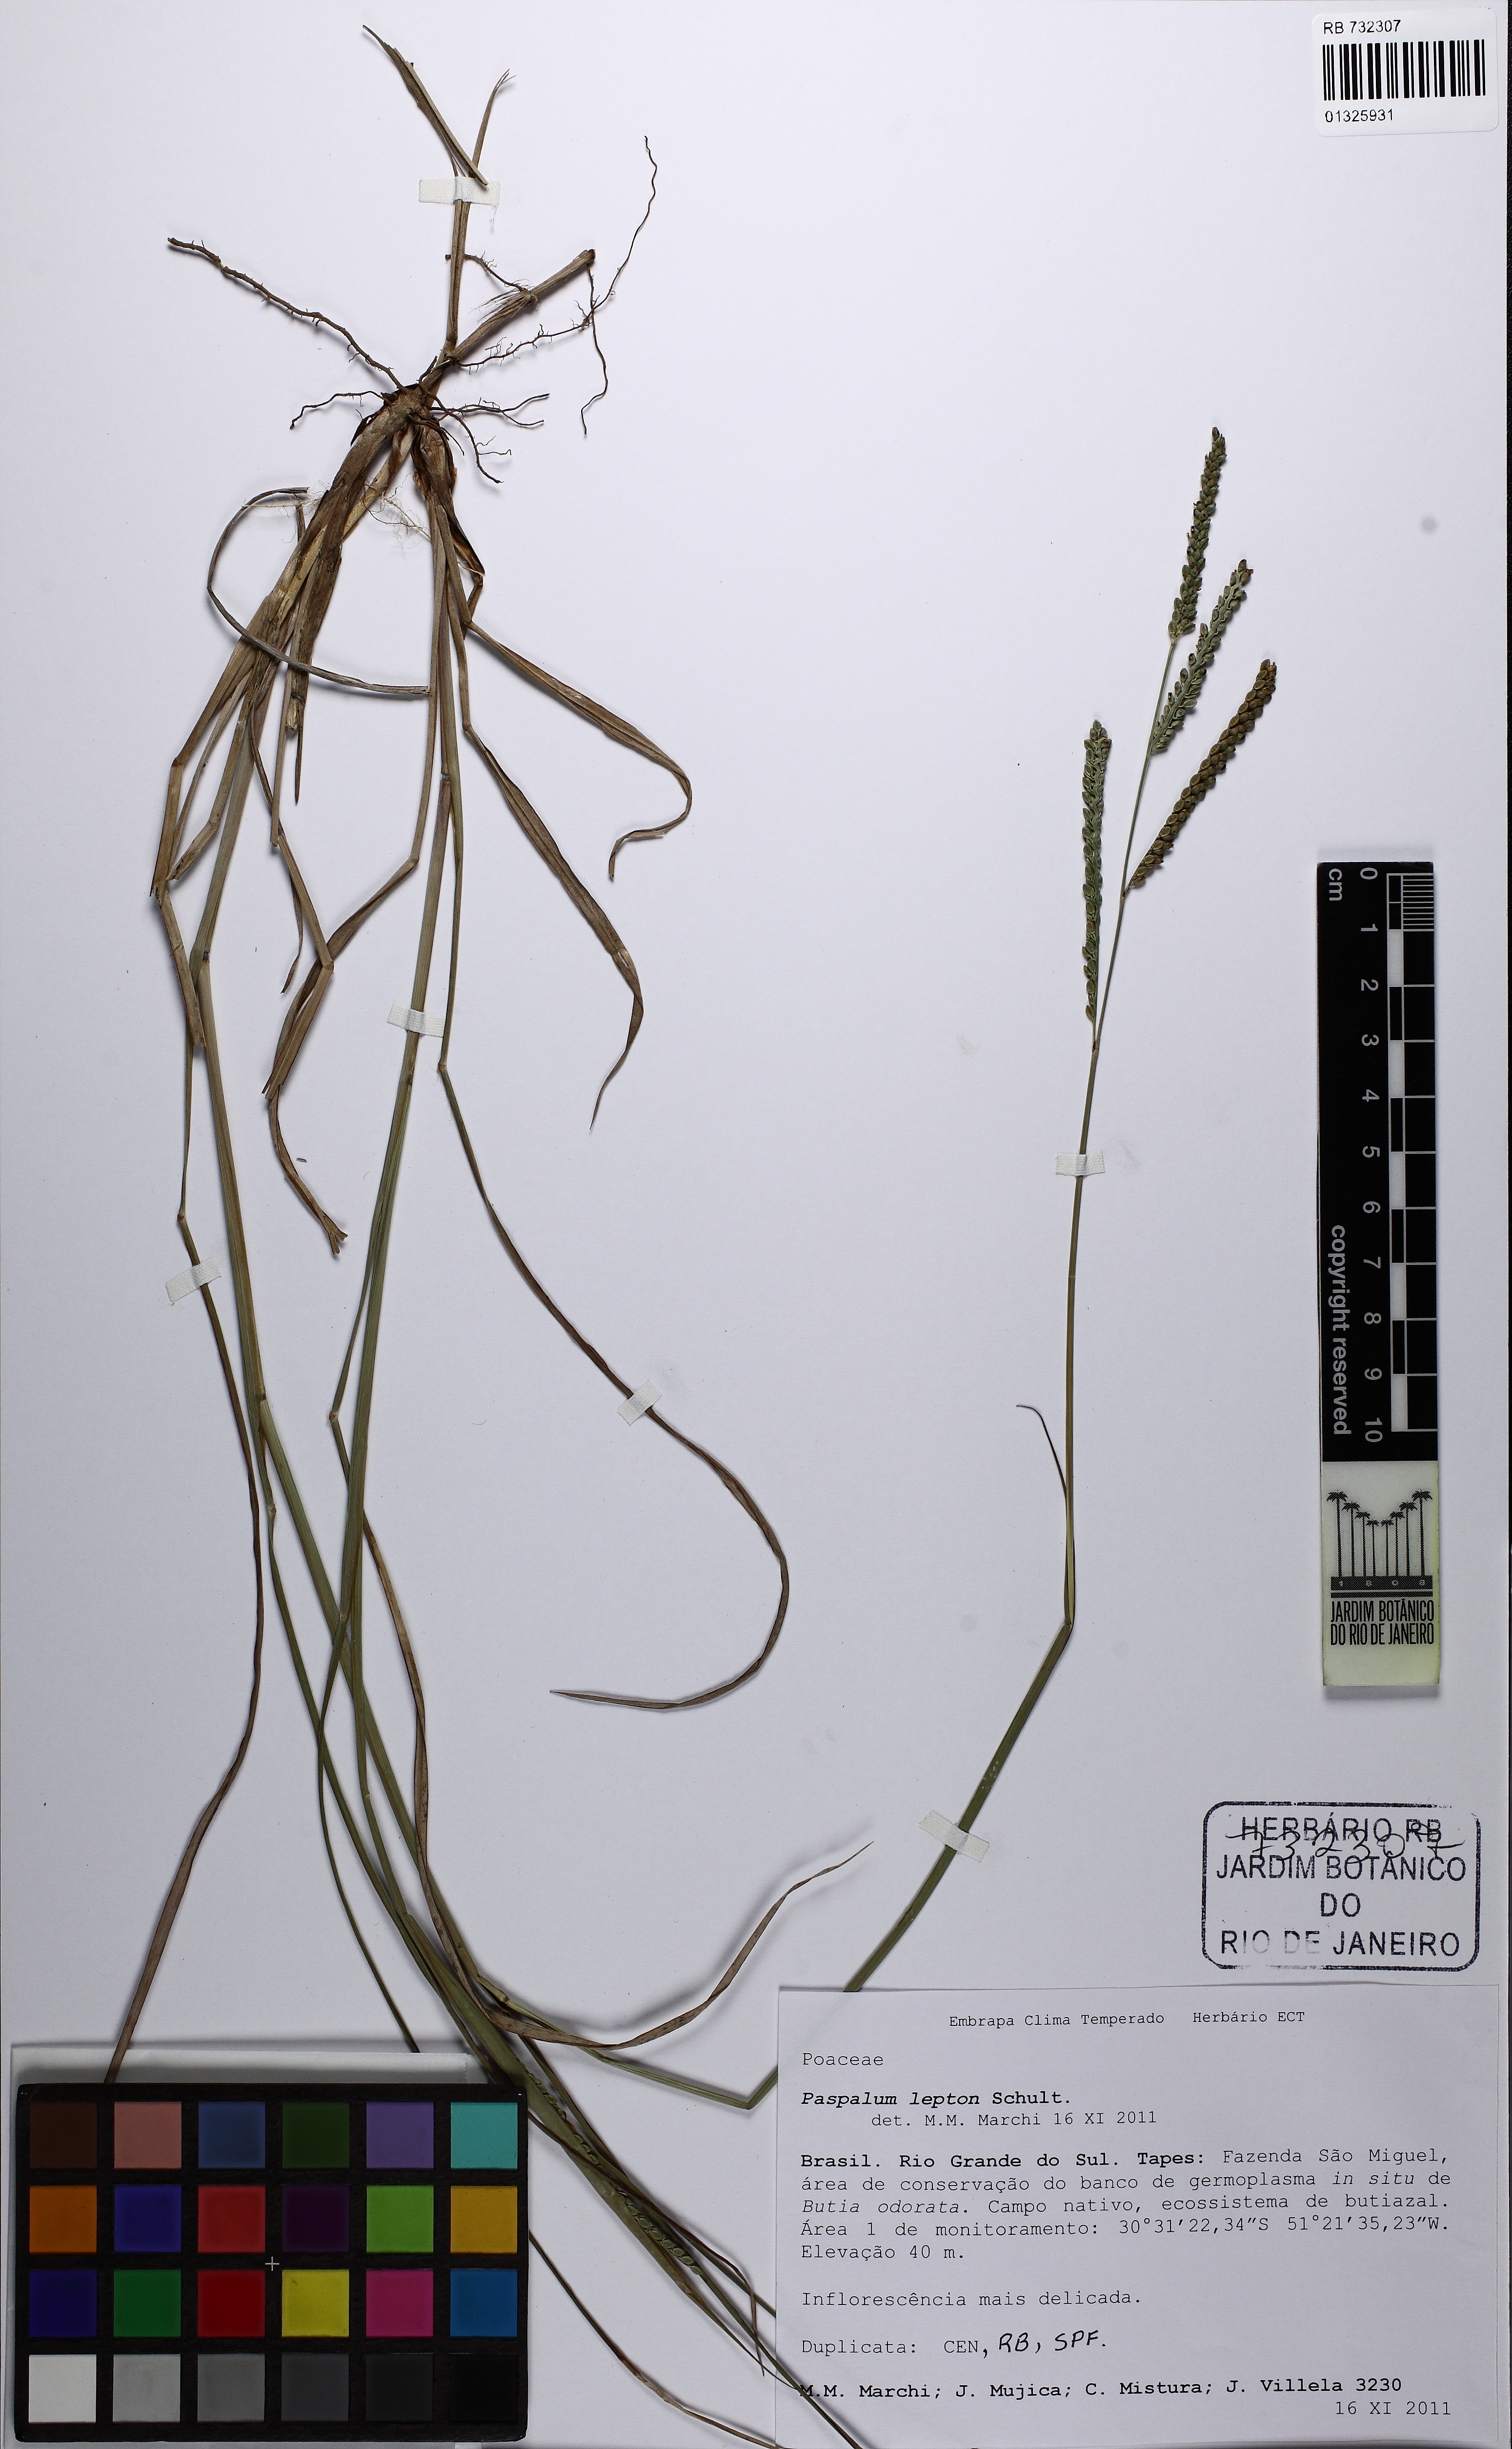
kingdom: Plantae
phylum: Tracheophyta
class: Liliopsida
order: Poales
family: Poaceae
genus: Paspalum
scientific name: Paspalum lepton
